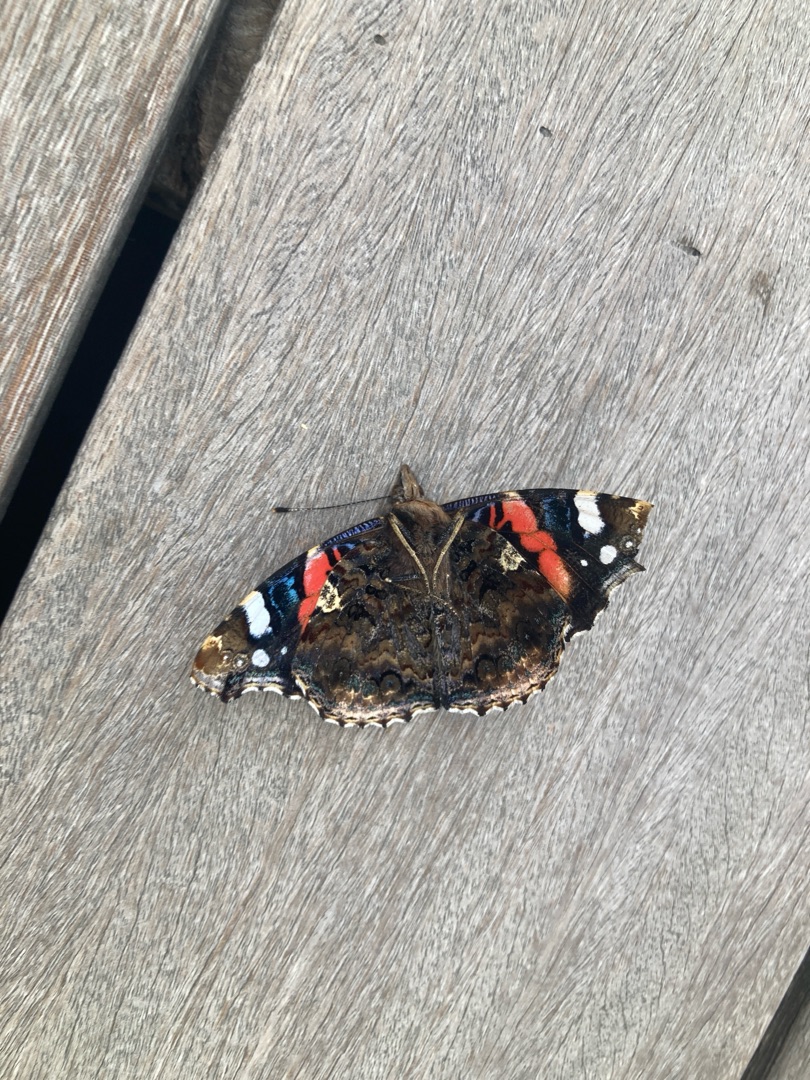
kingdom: Animalia
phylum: Arthropoda
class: Insecta
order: Lepidoptera
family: Nymphalidae
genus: Vanessa
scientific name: Vanessa atalanta
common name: Admiral
